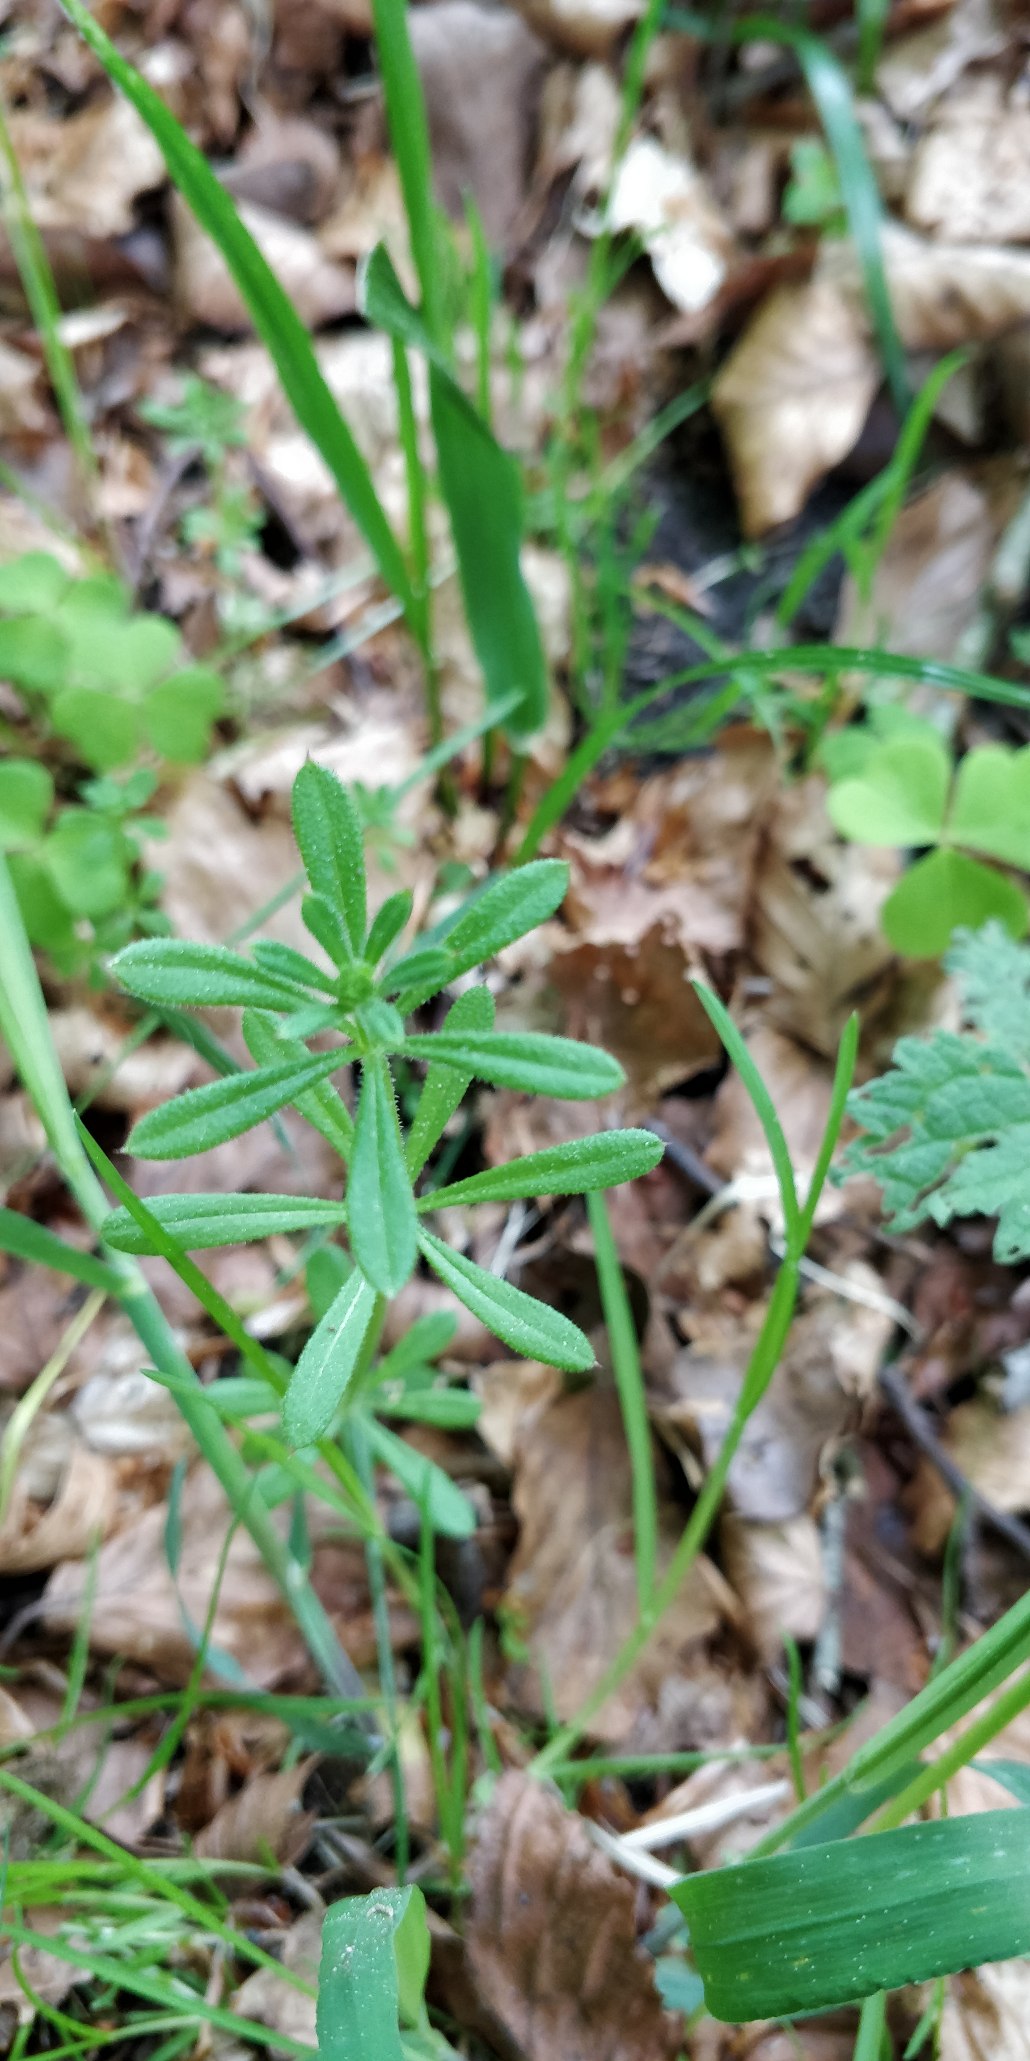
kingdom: Plantae
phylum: Tracheophyta
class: Magnoliopsida
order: Gentianales
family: Rubiaceae
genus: Galium
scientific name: Galium aparine
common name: Burre-snerre
